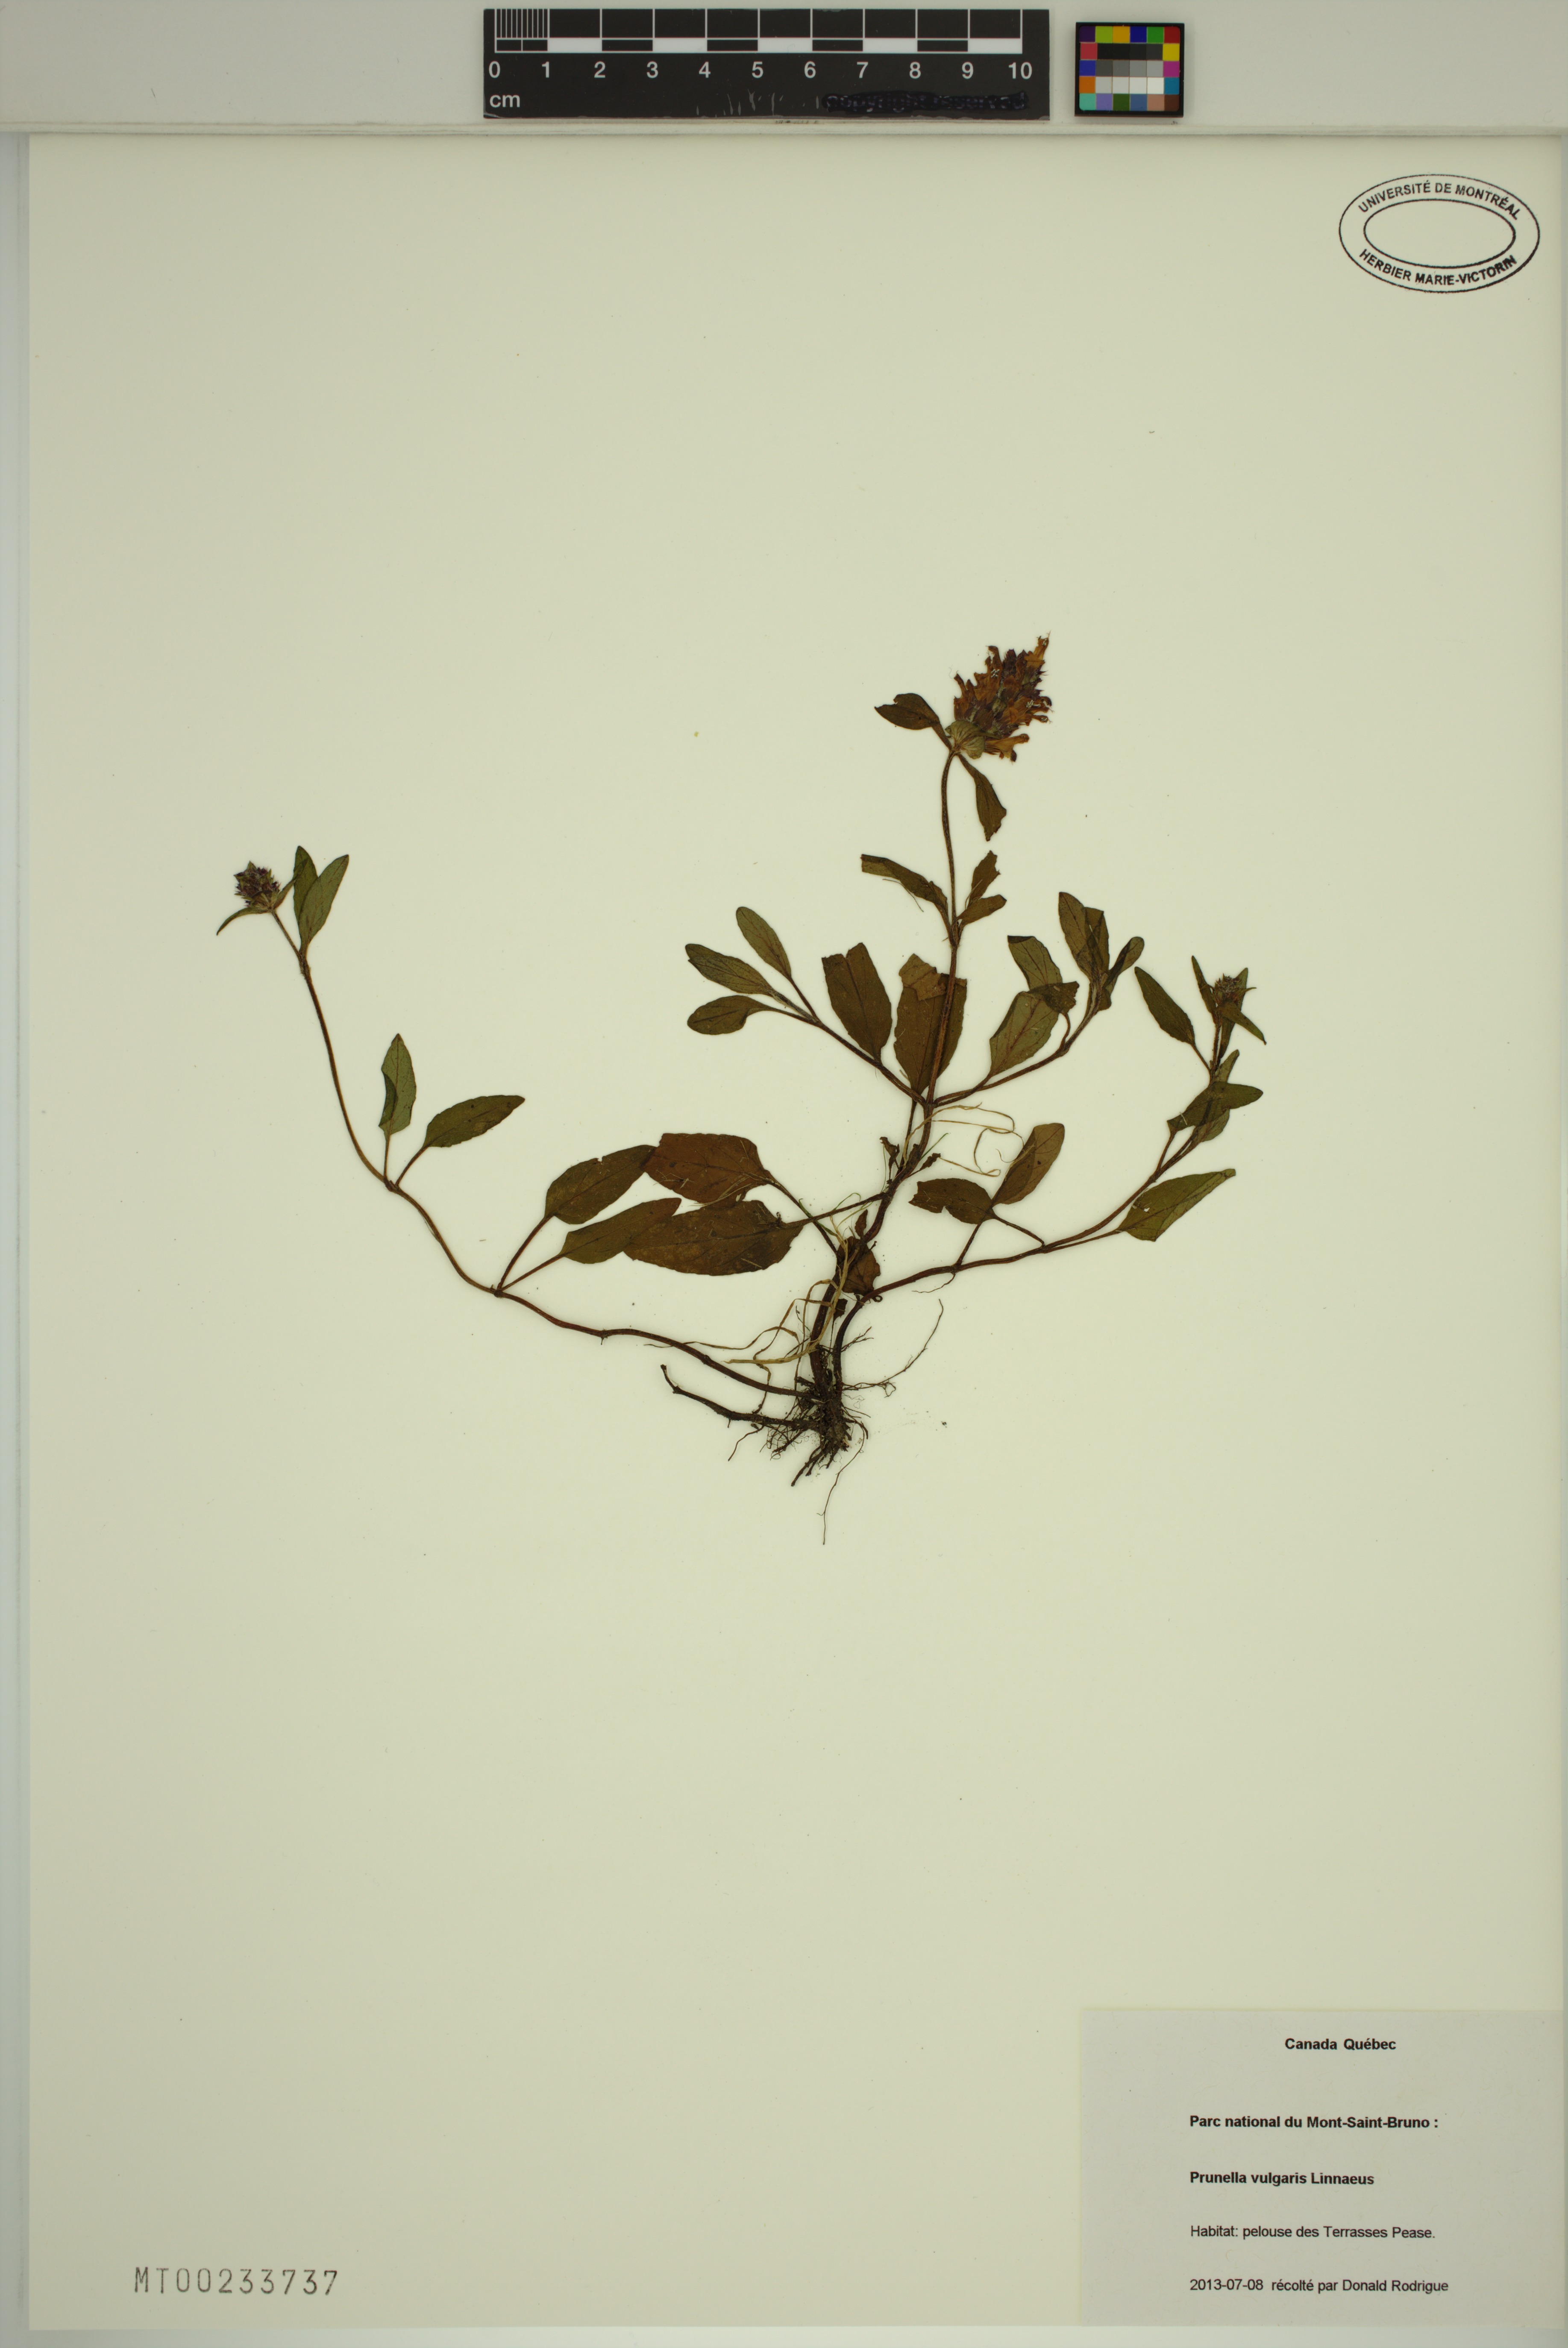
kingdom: Plantae
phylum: Tracheophyta
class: Magnoliopsida
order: Lamiales
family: Lamiaceae
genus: Prunella
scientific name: Prunella vulgaris
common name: Heal-all
